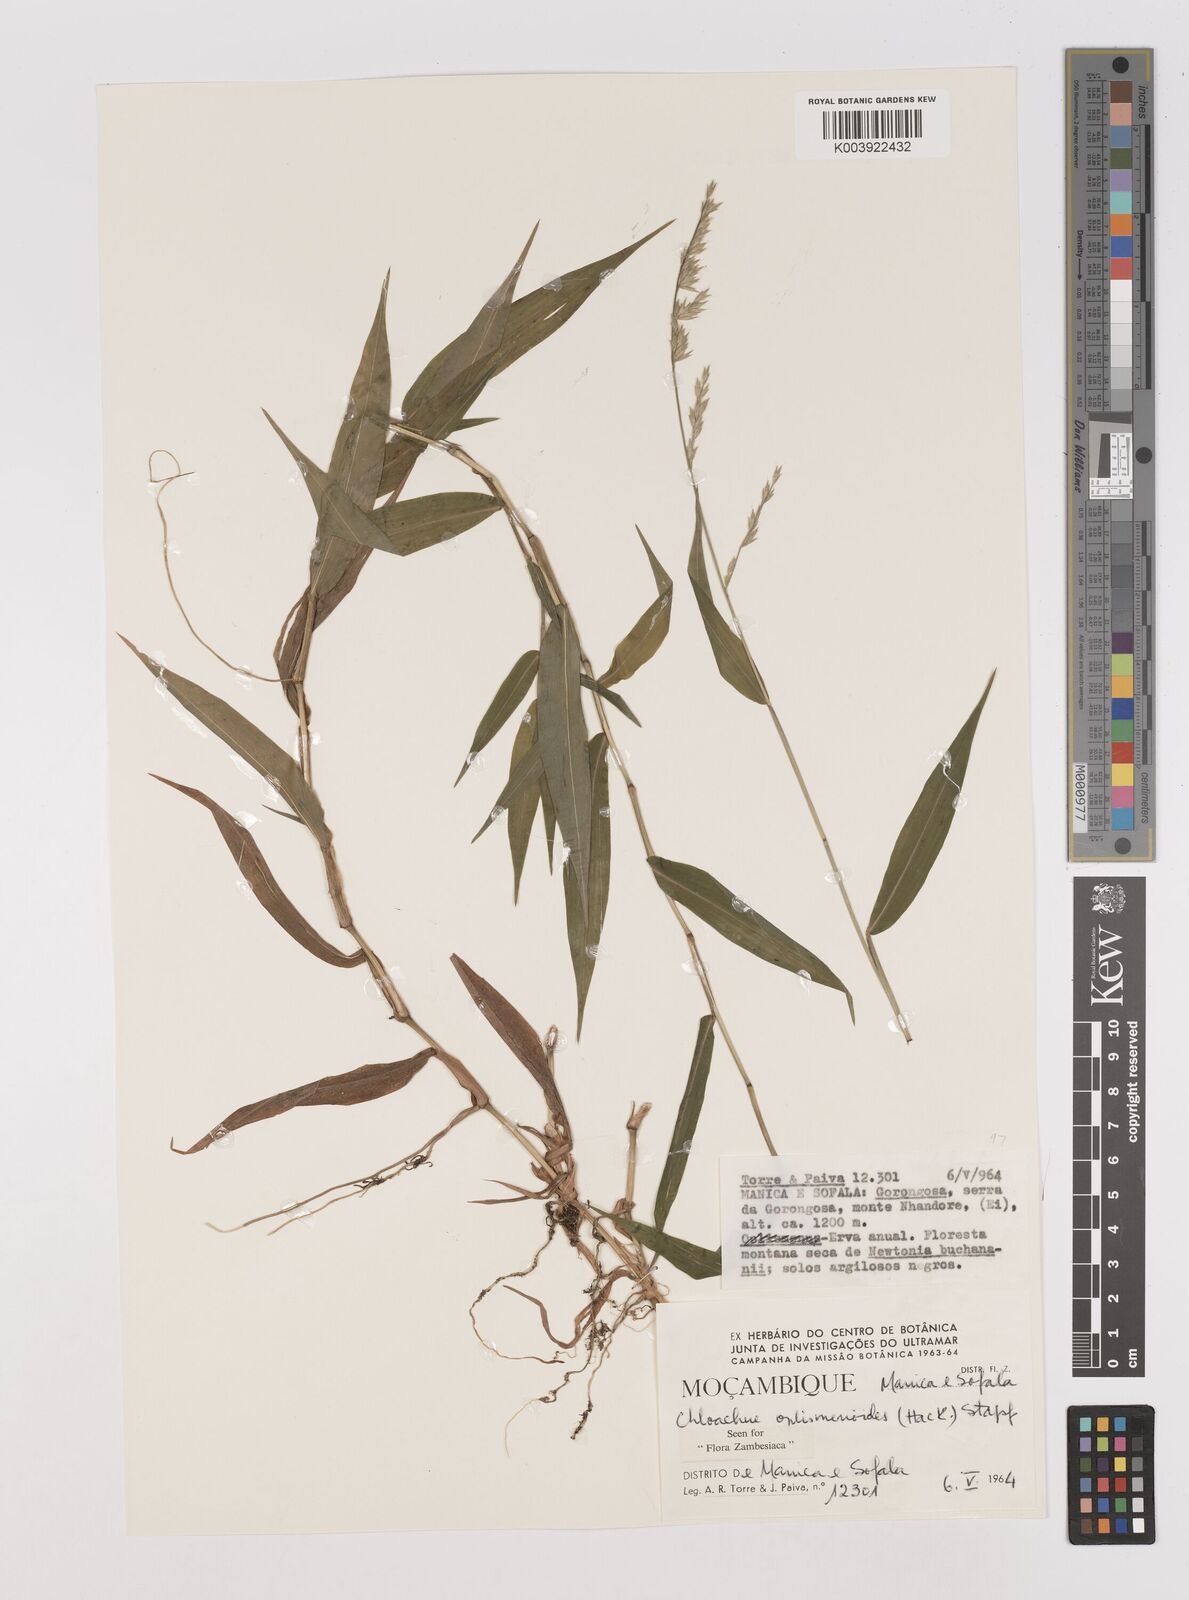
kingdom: Plantae
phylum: Tracheophyta
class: Liliopsida
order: Poales
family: Poaceae
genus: Poecilostachys
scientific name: Poecilostachys oplismenoides
